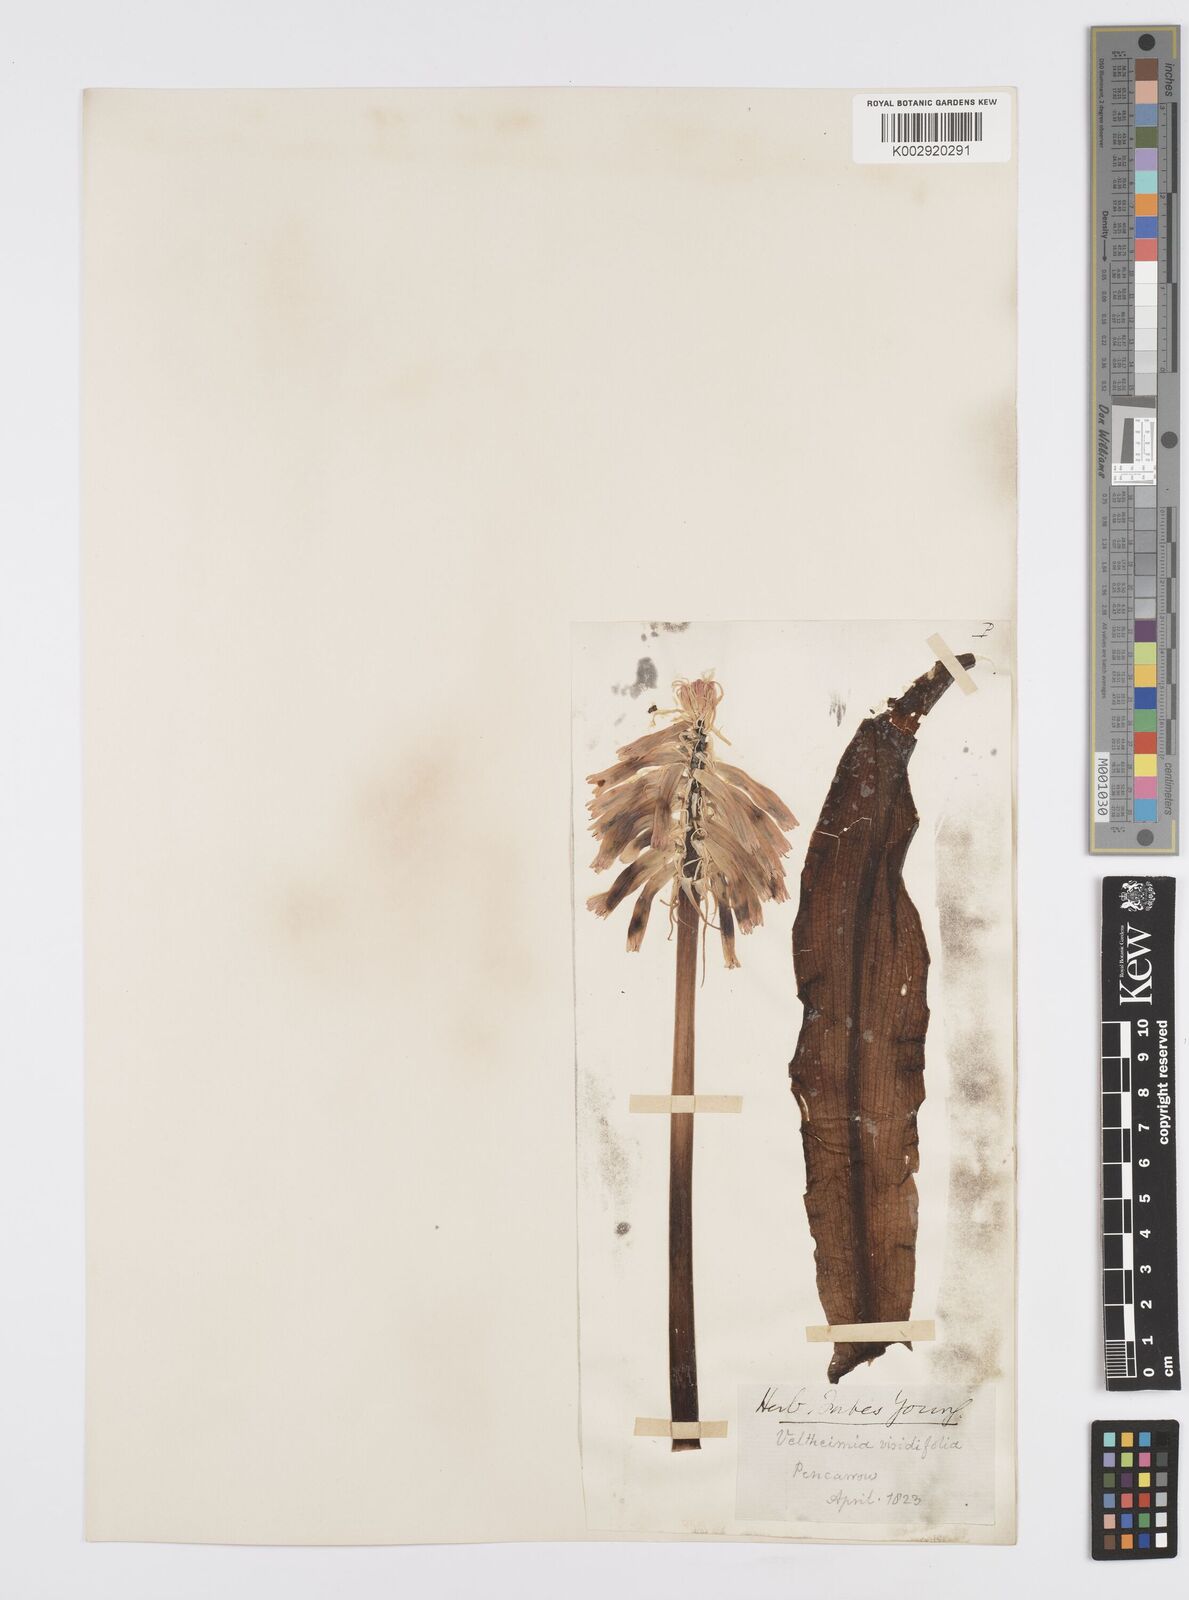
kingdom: Plantae
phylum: Tracheophyta
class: Liliopsida
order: Asparagales
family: Asparagaceae
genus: Veltheimia
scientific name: Veltheimia bracteata
